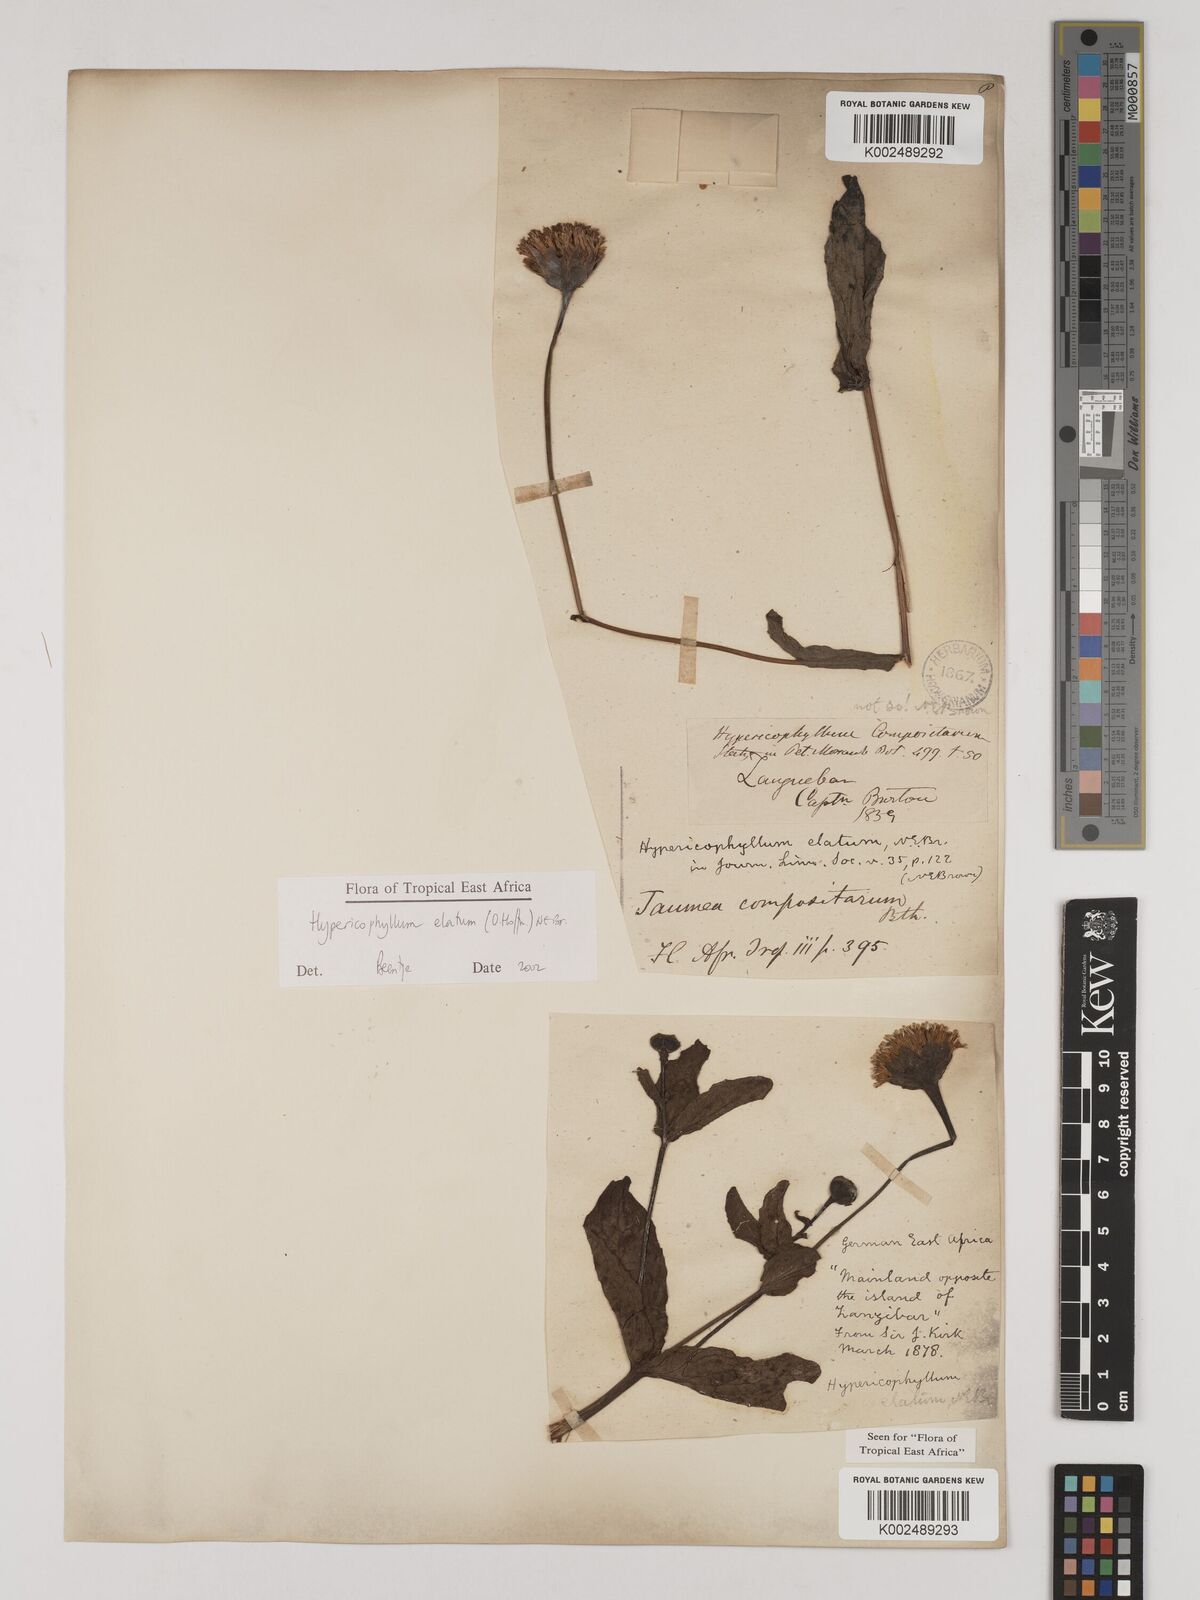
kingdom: Plantae
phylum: Tracheophyta
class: Magnoliopsida
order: Asterales
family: Asteraceae
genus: Hypericophyllum
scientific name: Hypericophyllum elatum
